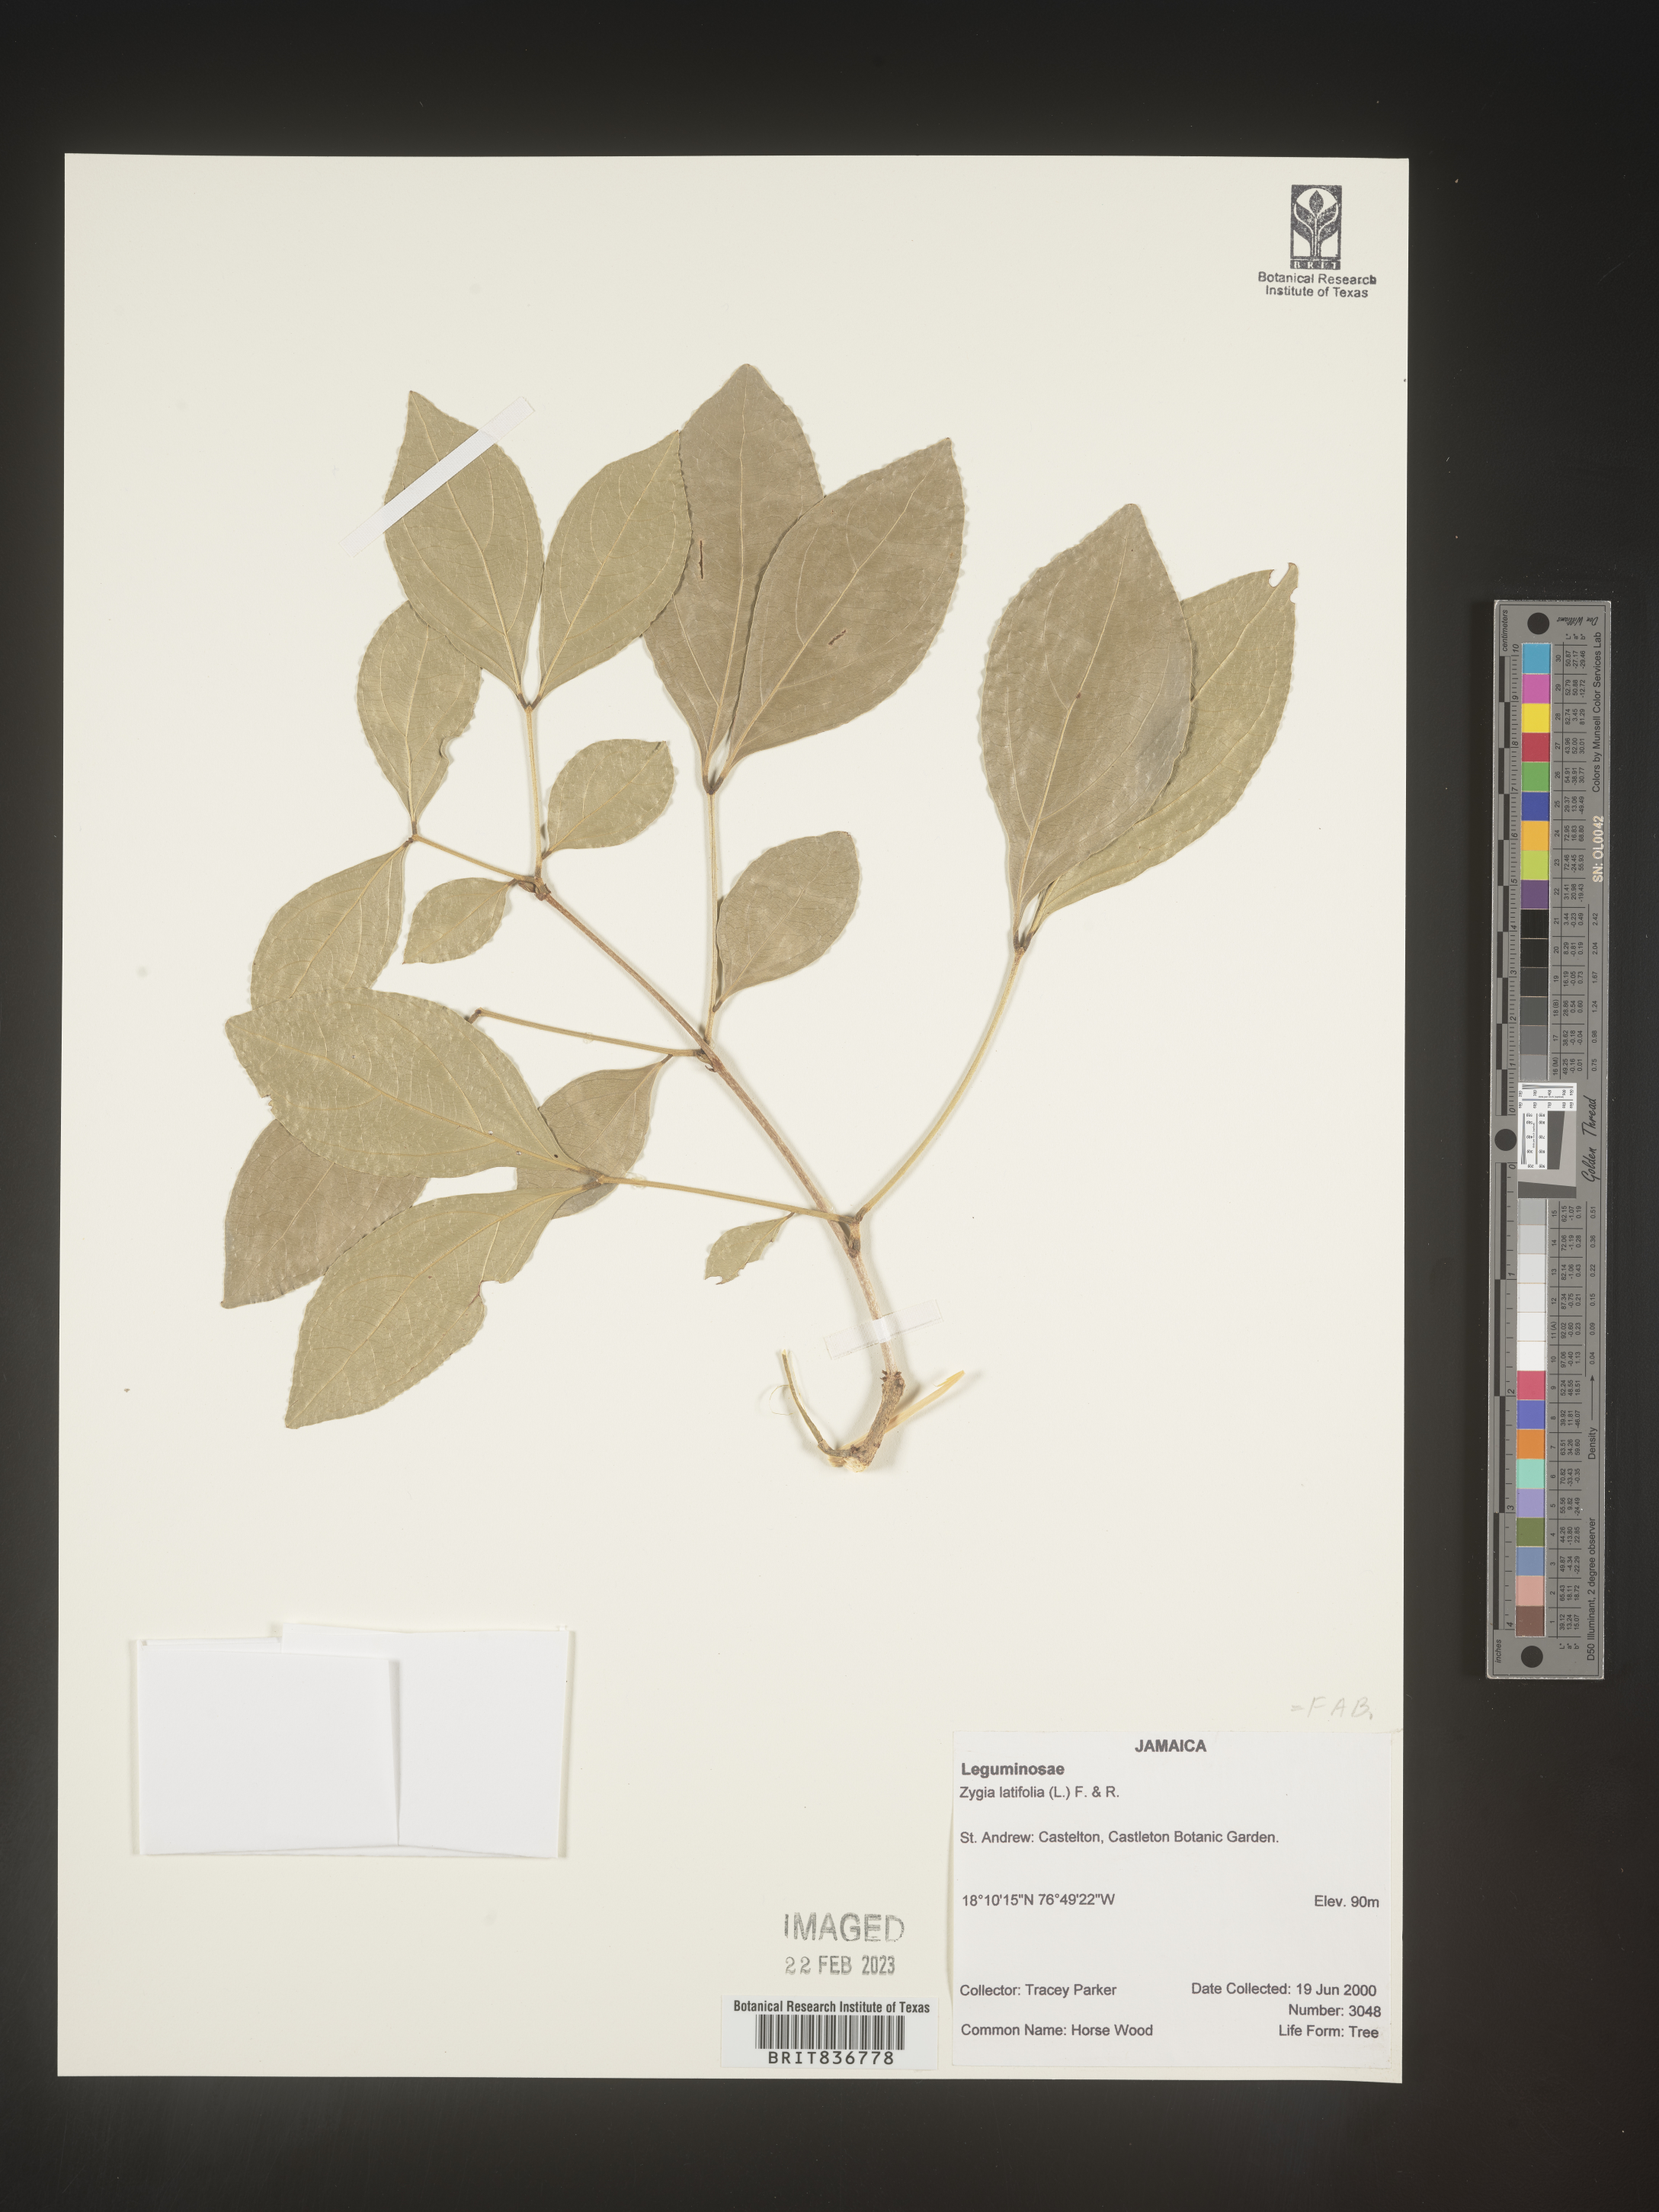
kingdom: Plantae
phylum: Tracheophyta
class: Magnoliopsida
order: Fabales
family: Fabaceae
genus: Zygia
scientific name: Zygia
